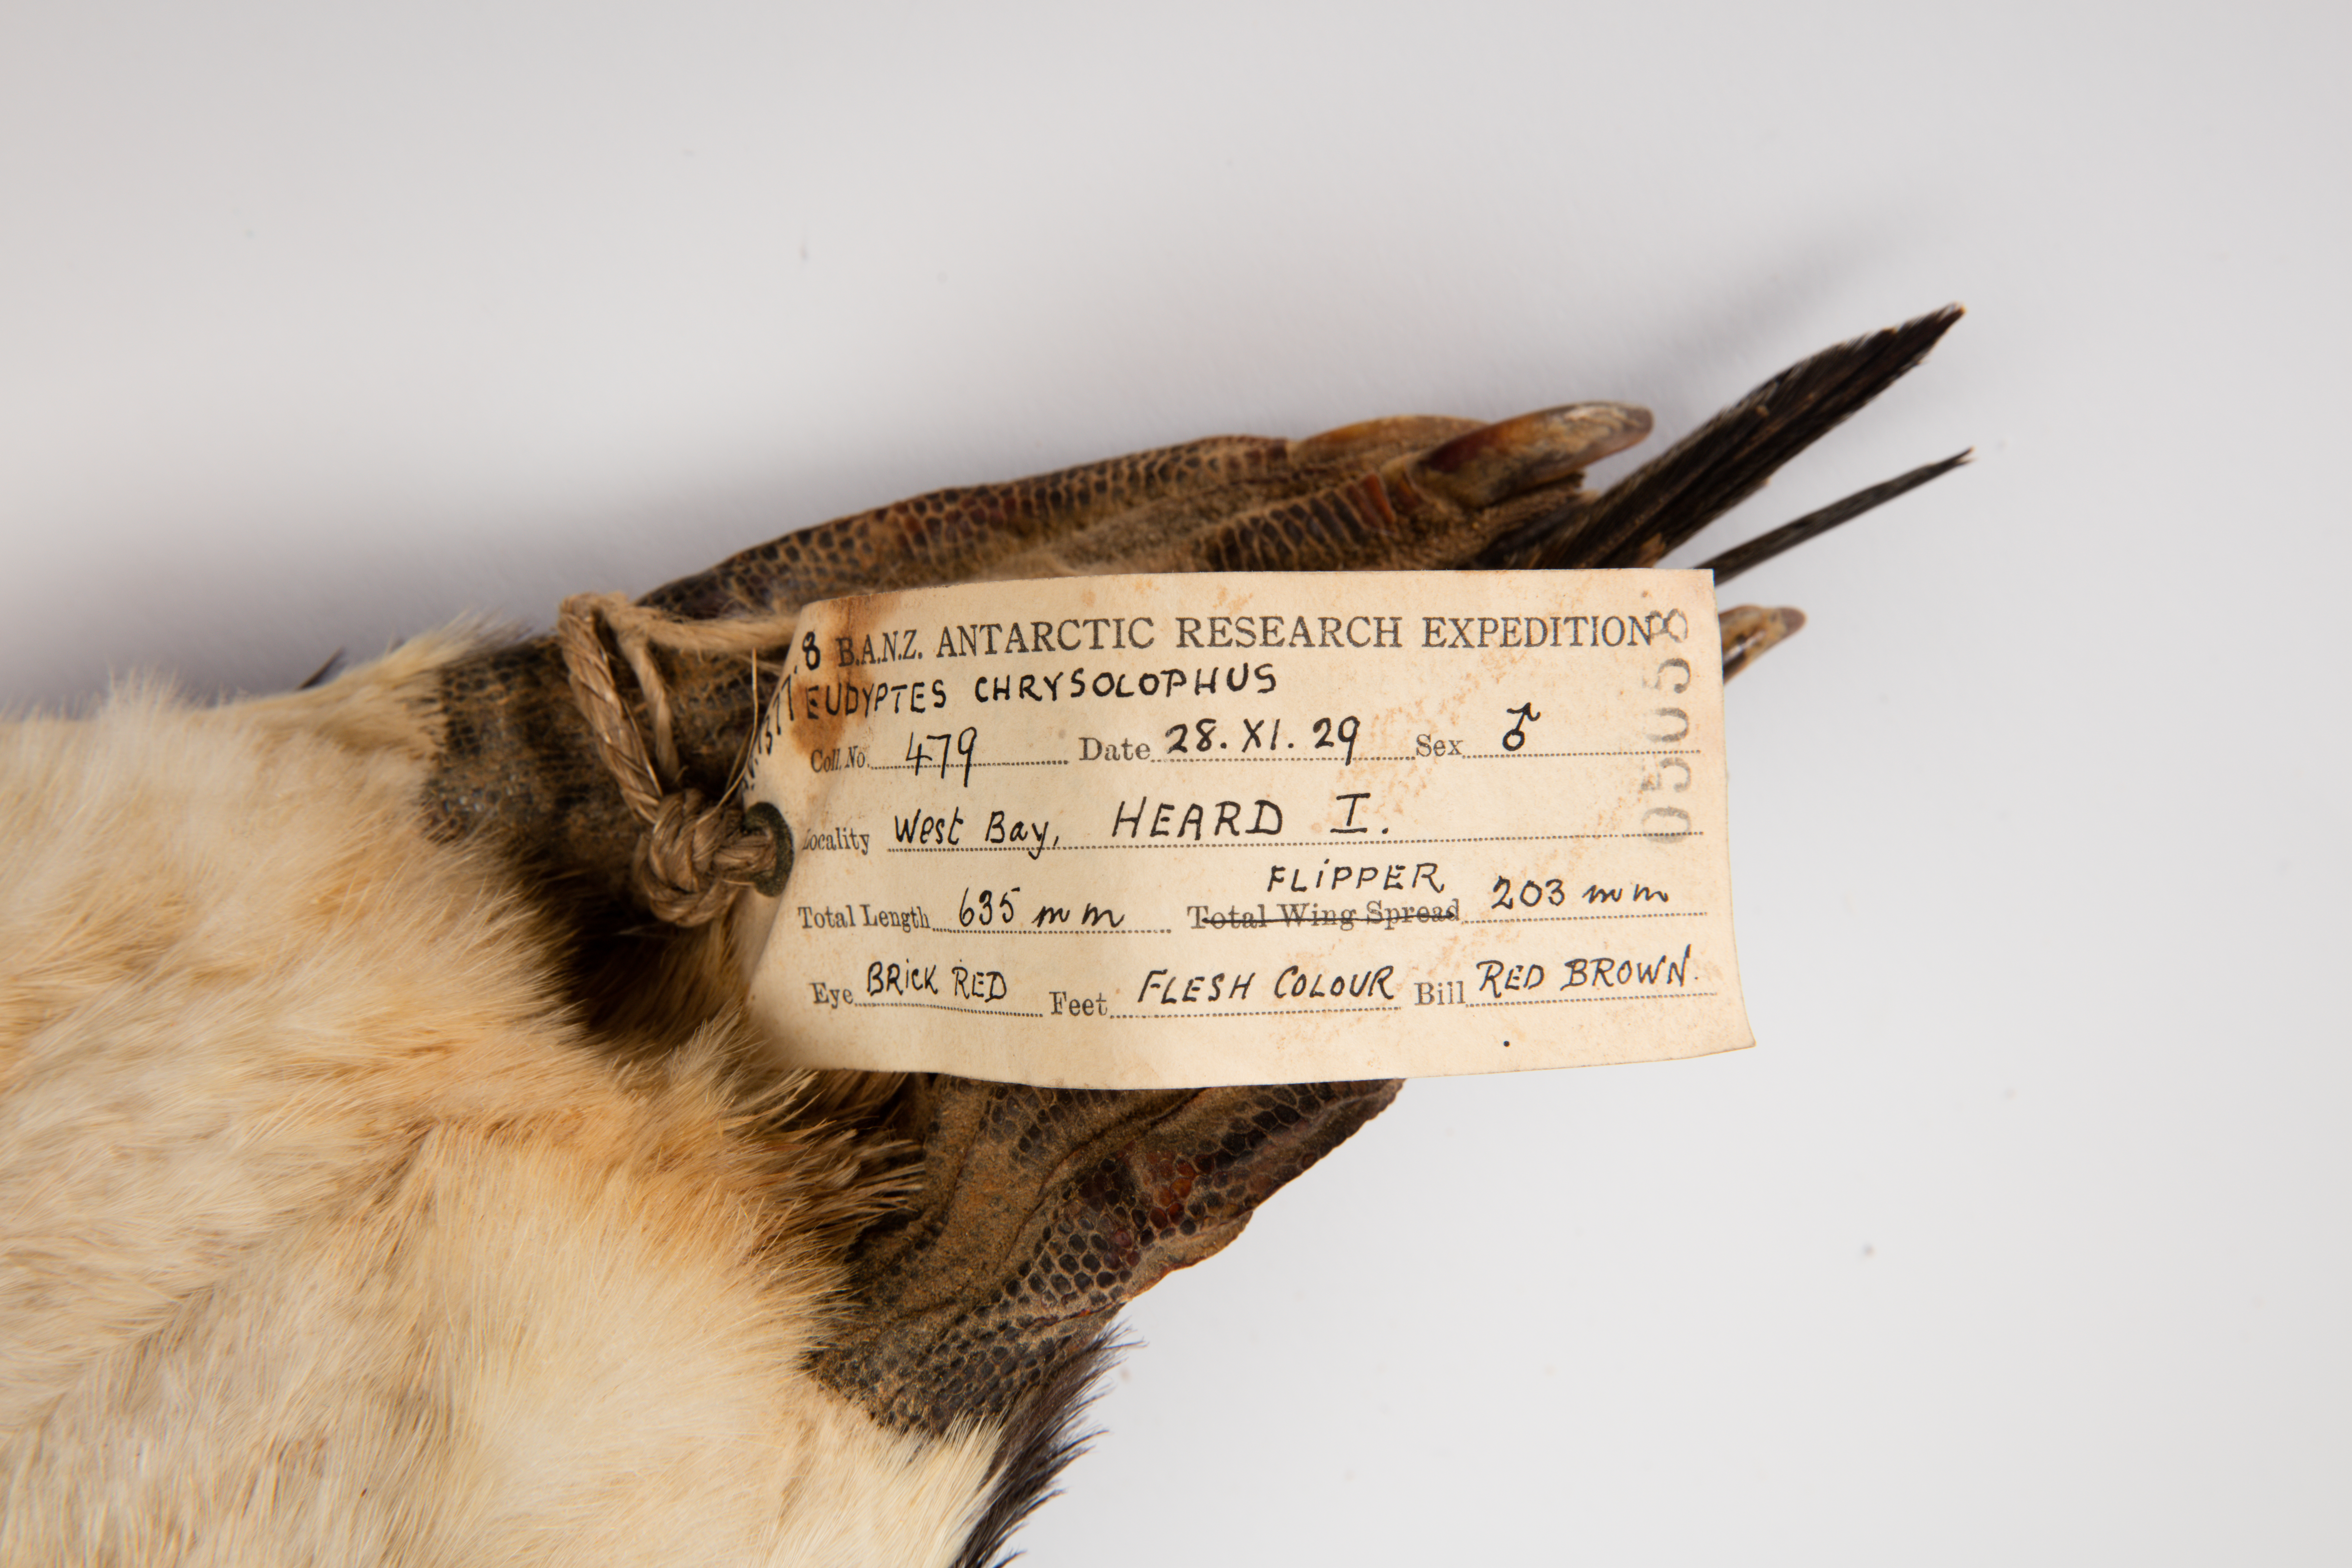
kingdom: Animalia
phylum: Chordata
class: Aves
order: Sphenisciformes
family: Spheniscidae
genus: Eudyptes
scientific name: Eudyptes chrysolophus
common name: Macaroni penguin
